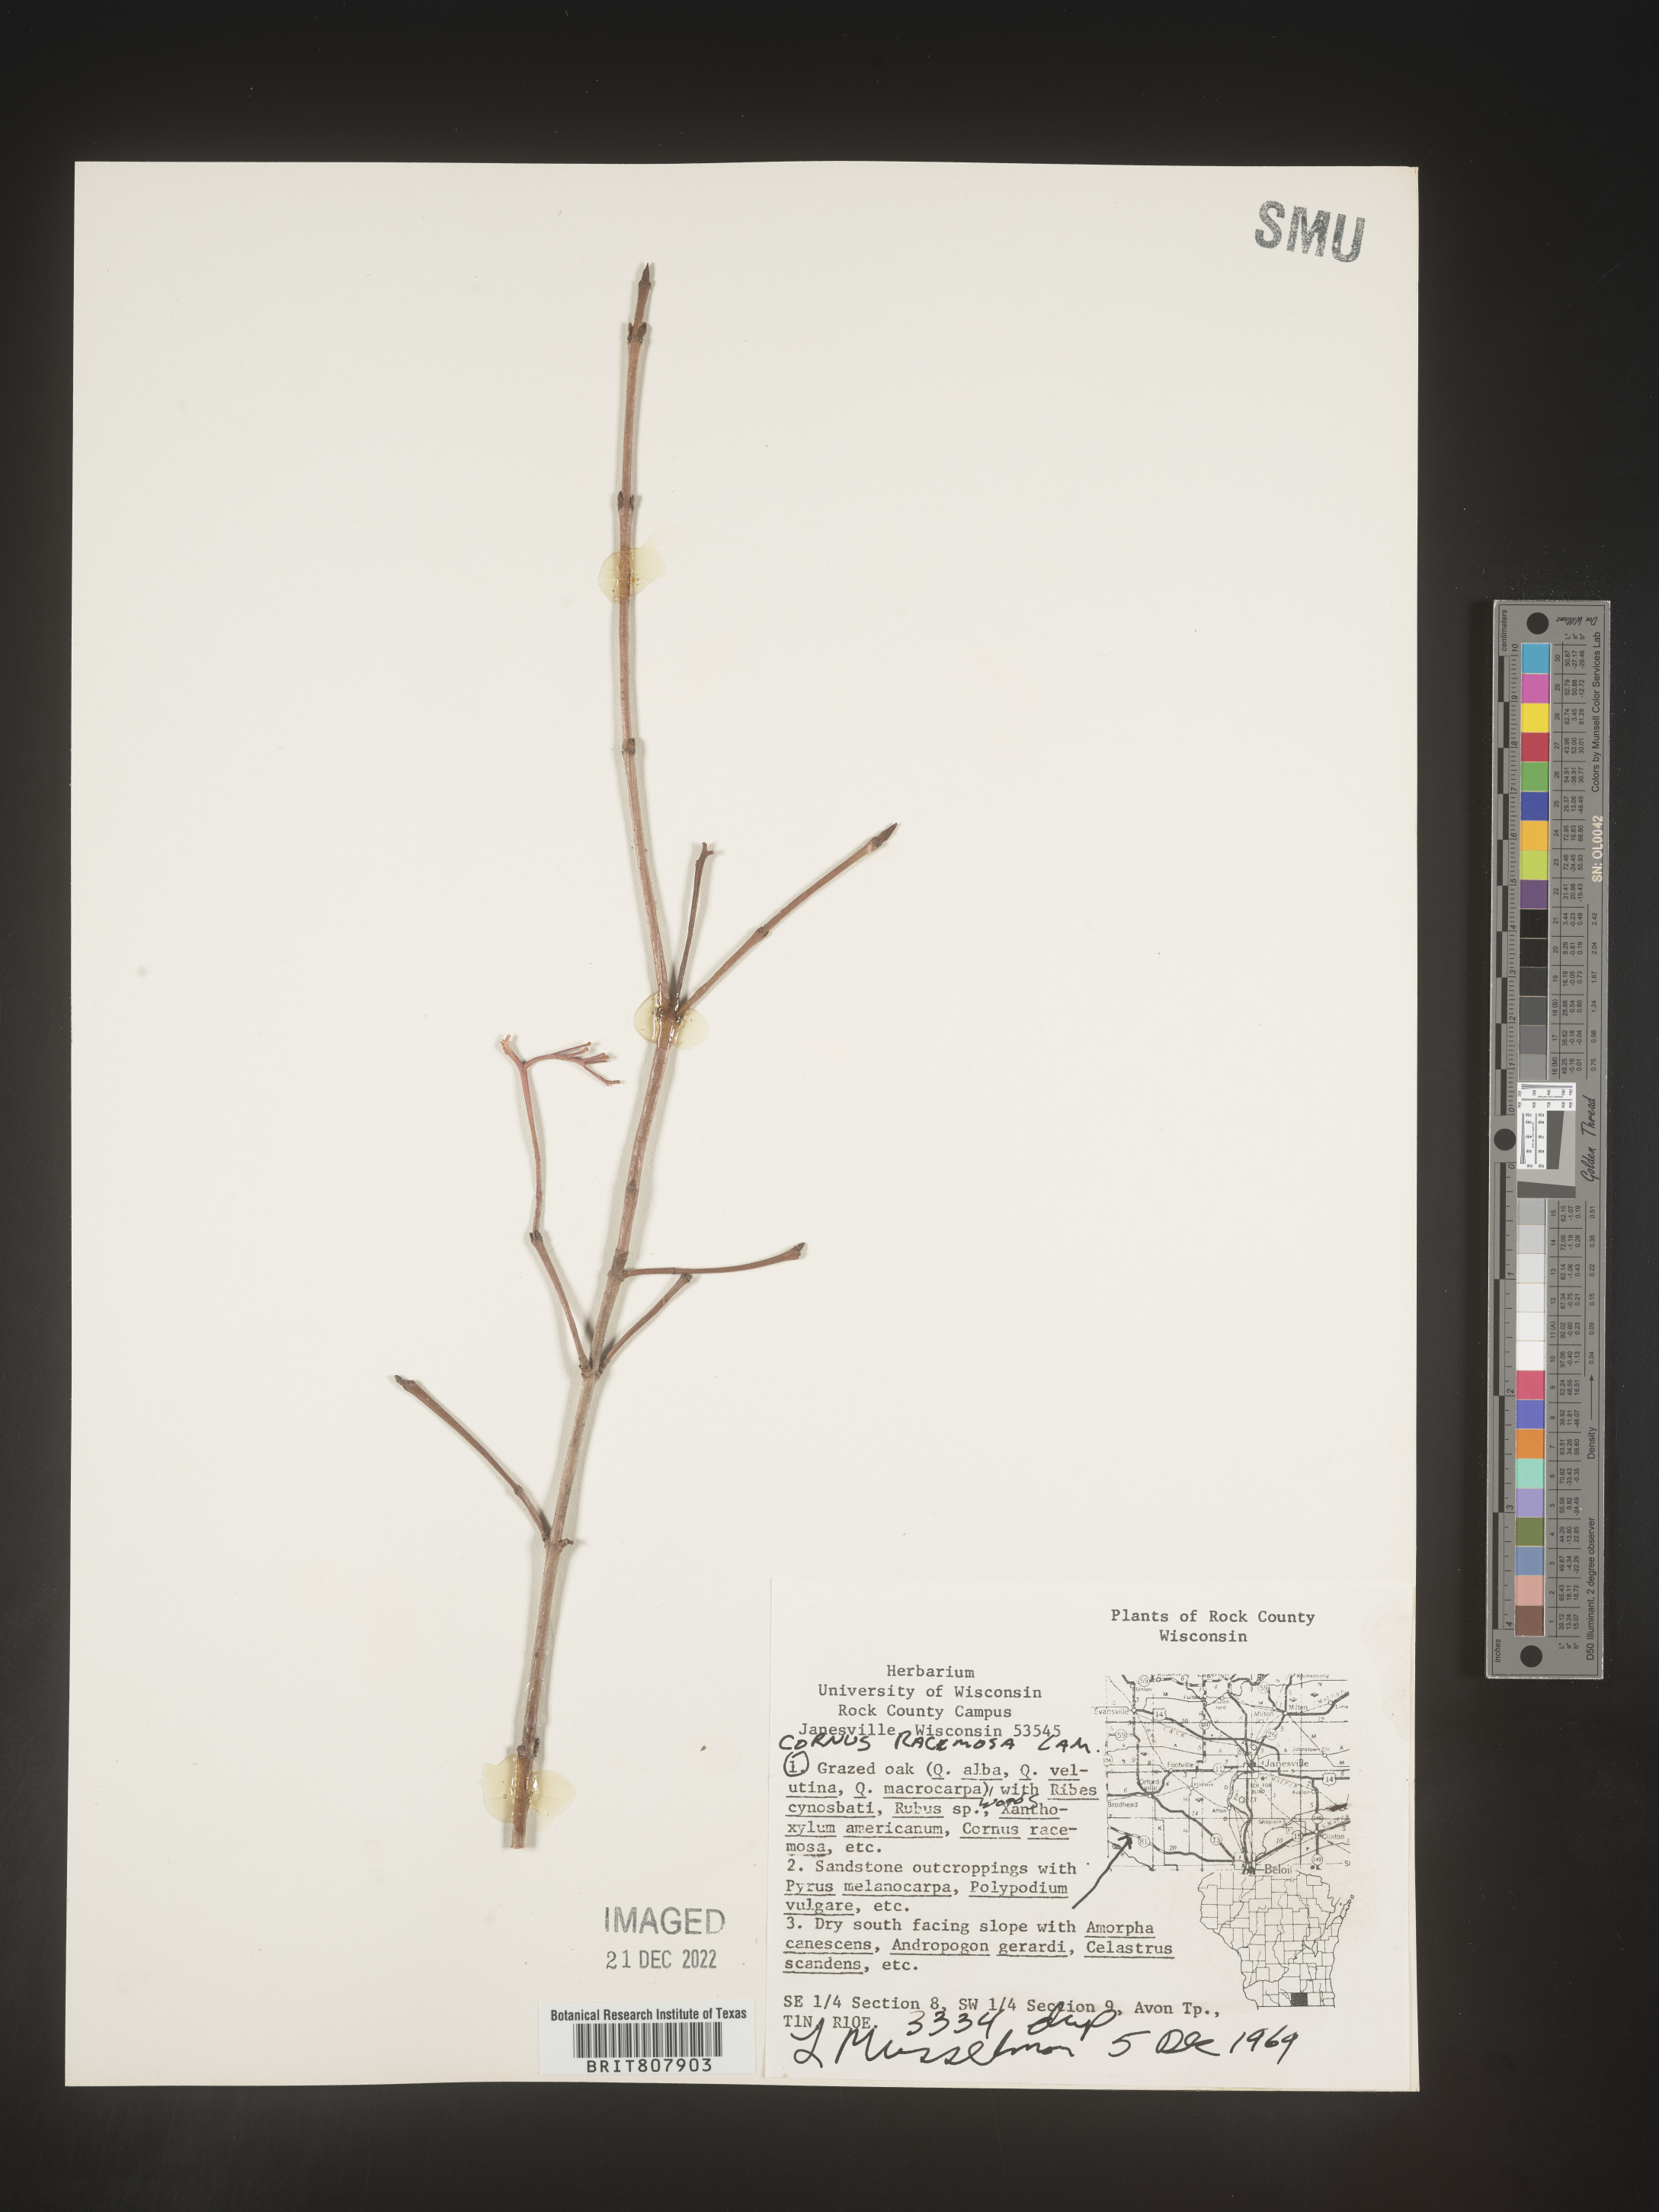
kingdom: Plantae
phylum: Tracheophyta
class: Magnoliopsida
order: Cornales
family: Cornaceae
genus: Cornus
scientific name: Cornus racemosa
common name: Panicled dogwood
